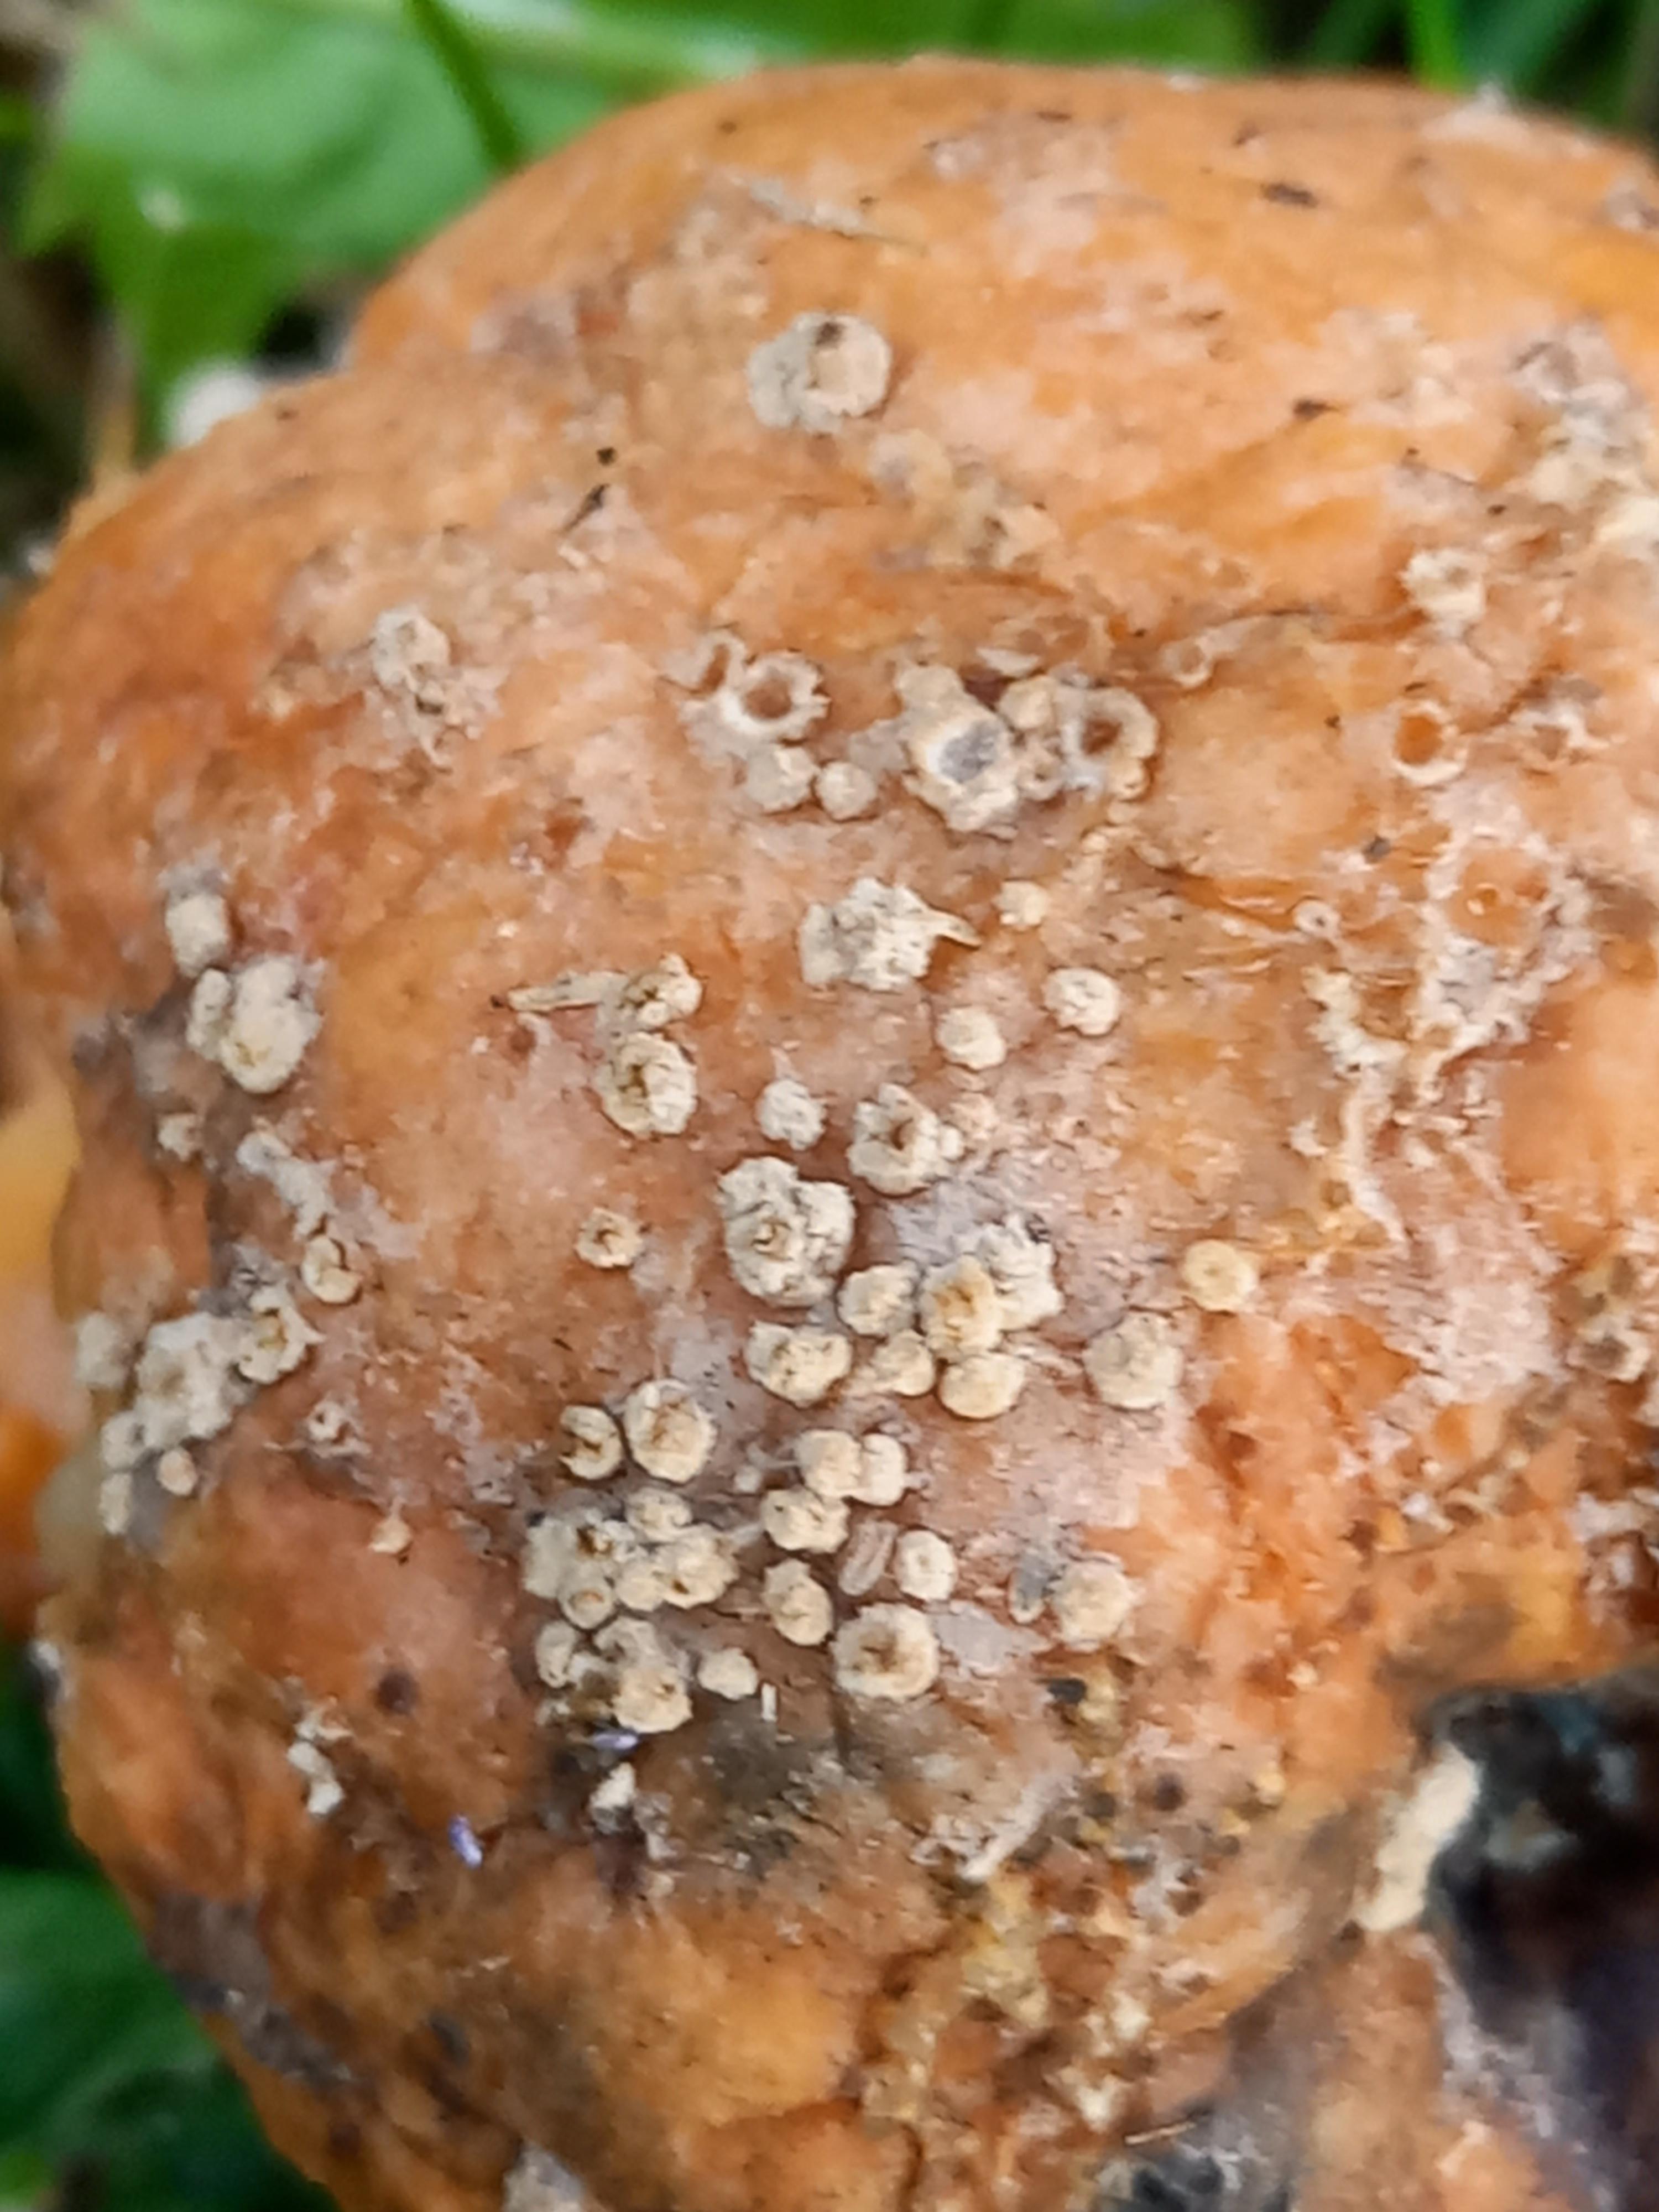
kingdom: Fungi
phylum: Ascomycota
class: Leotiomycetes
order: Helotiales
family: Sclerotiniaceae
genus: Monilinia
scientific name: Monilinia fructigena
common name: æble-knoldskive
